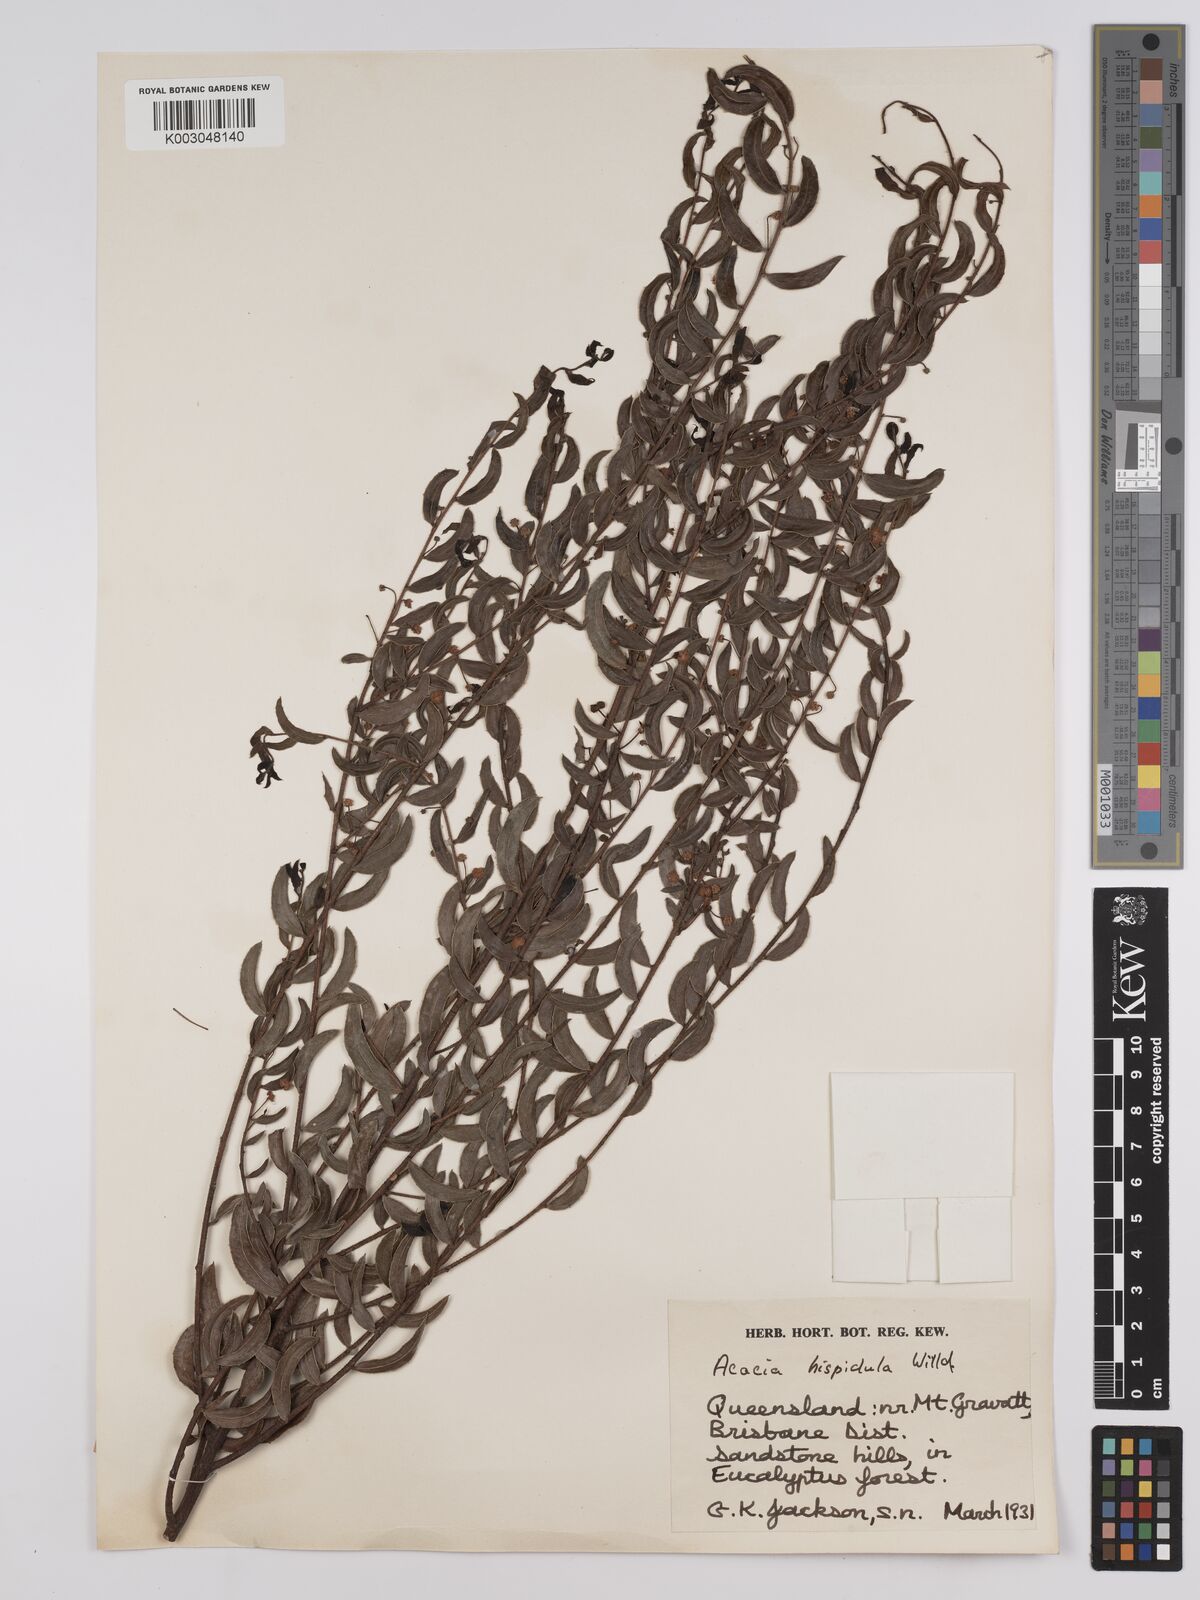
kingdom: Plantae
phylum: Tracheophyta
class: Magnoliopsida
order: Fabales
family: Fabaceae
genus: Acacia
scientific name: Acacia hispidula
